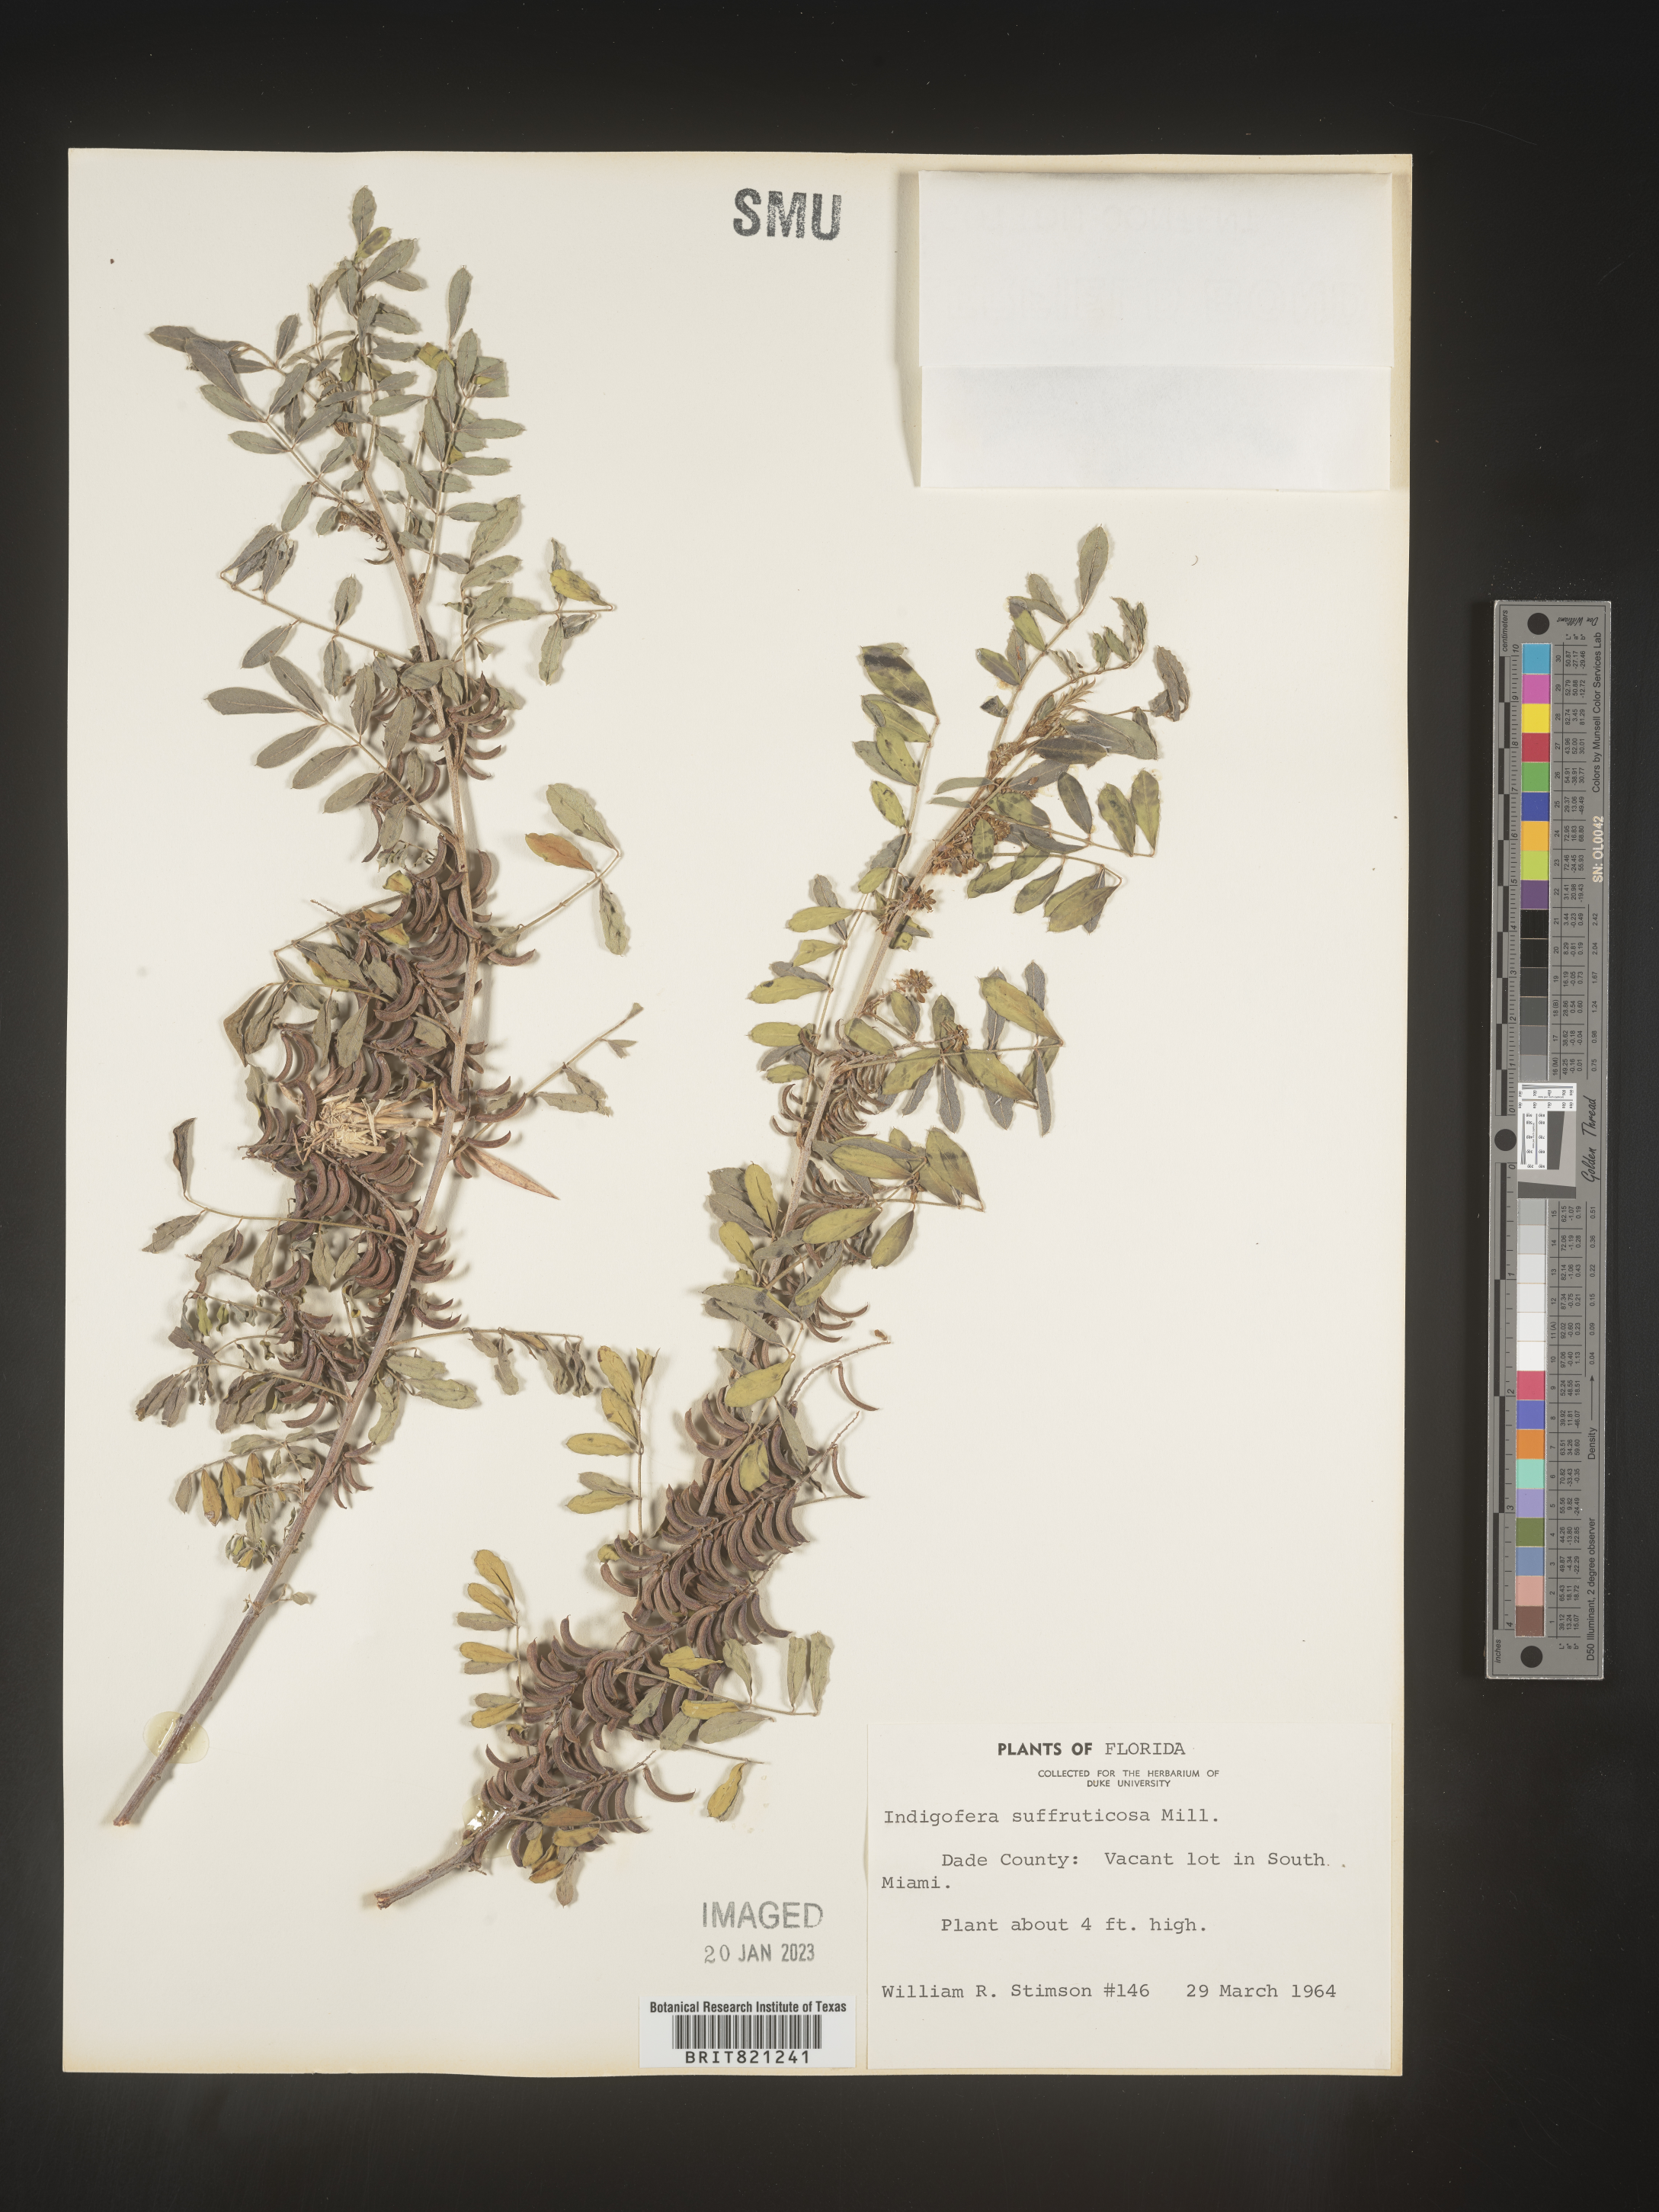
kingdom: Plantae
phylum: Tracheophyta
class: Magnoliopsida
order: Fabales
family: Fabaceae
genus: Indigofera
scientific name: Indigofera
